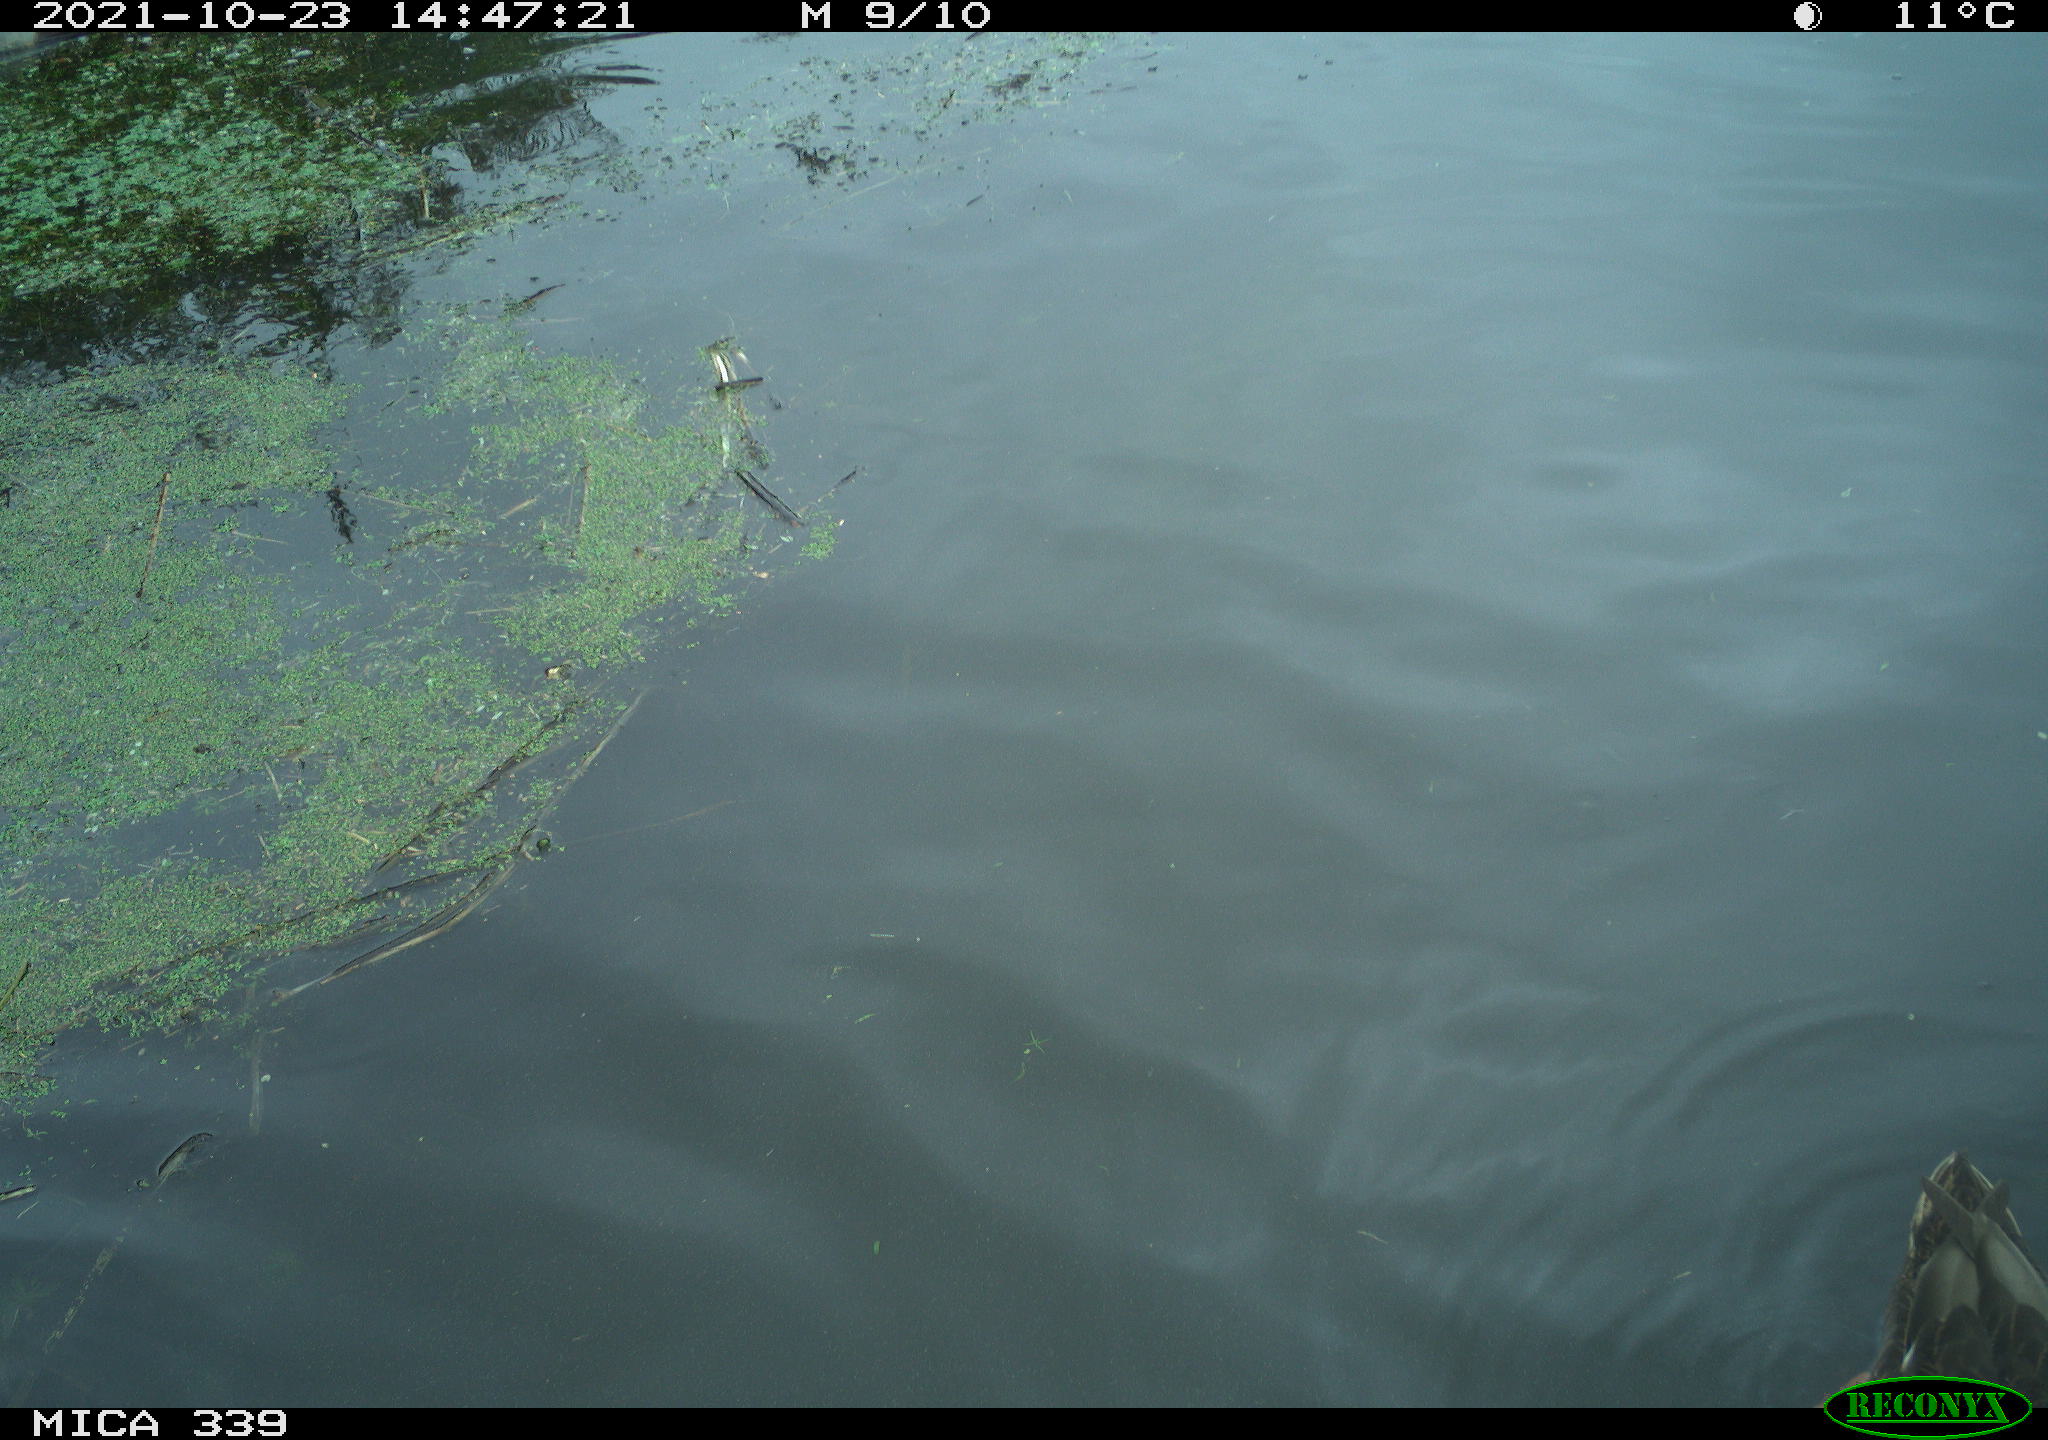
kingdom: Animalia
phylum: Chordata
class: Aves
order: Anseriformes
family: Anatidae
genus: Anas
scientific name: Anas platyrhynchos
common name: Mallard
